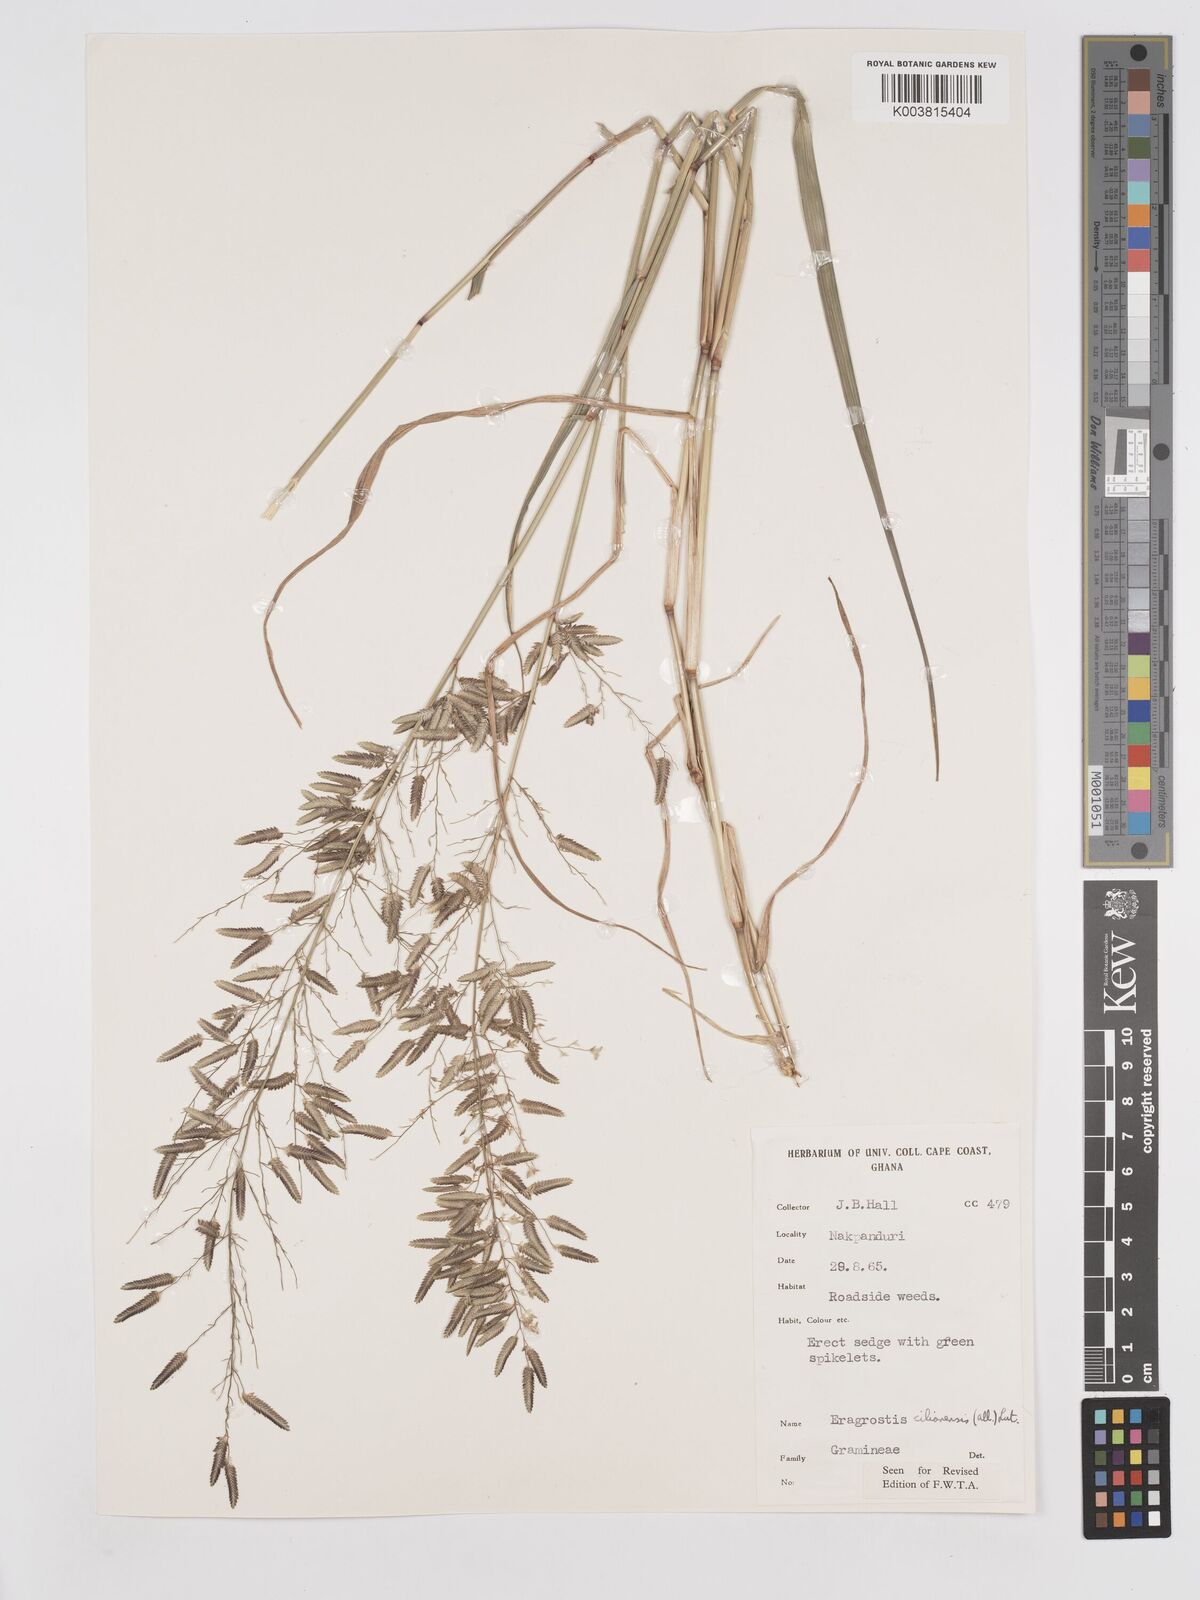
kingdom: Plantae
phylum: Tracheophyta
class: Liliopsida
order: Poales
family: Poaceae
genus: Eragrostis
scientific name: Eragrostis cilianensis
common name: Stinkgrass
